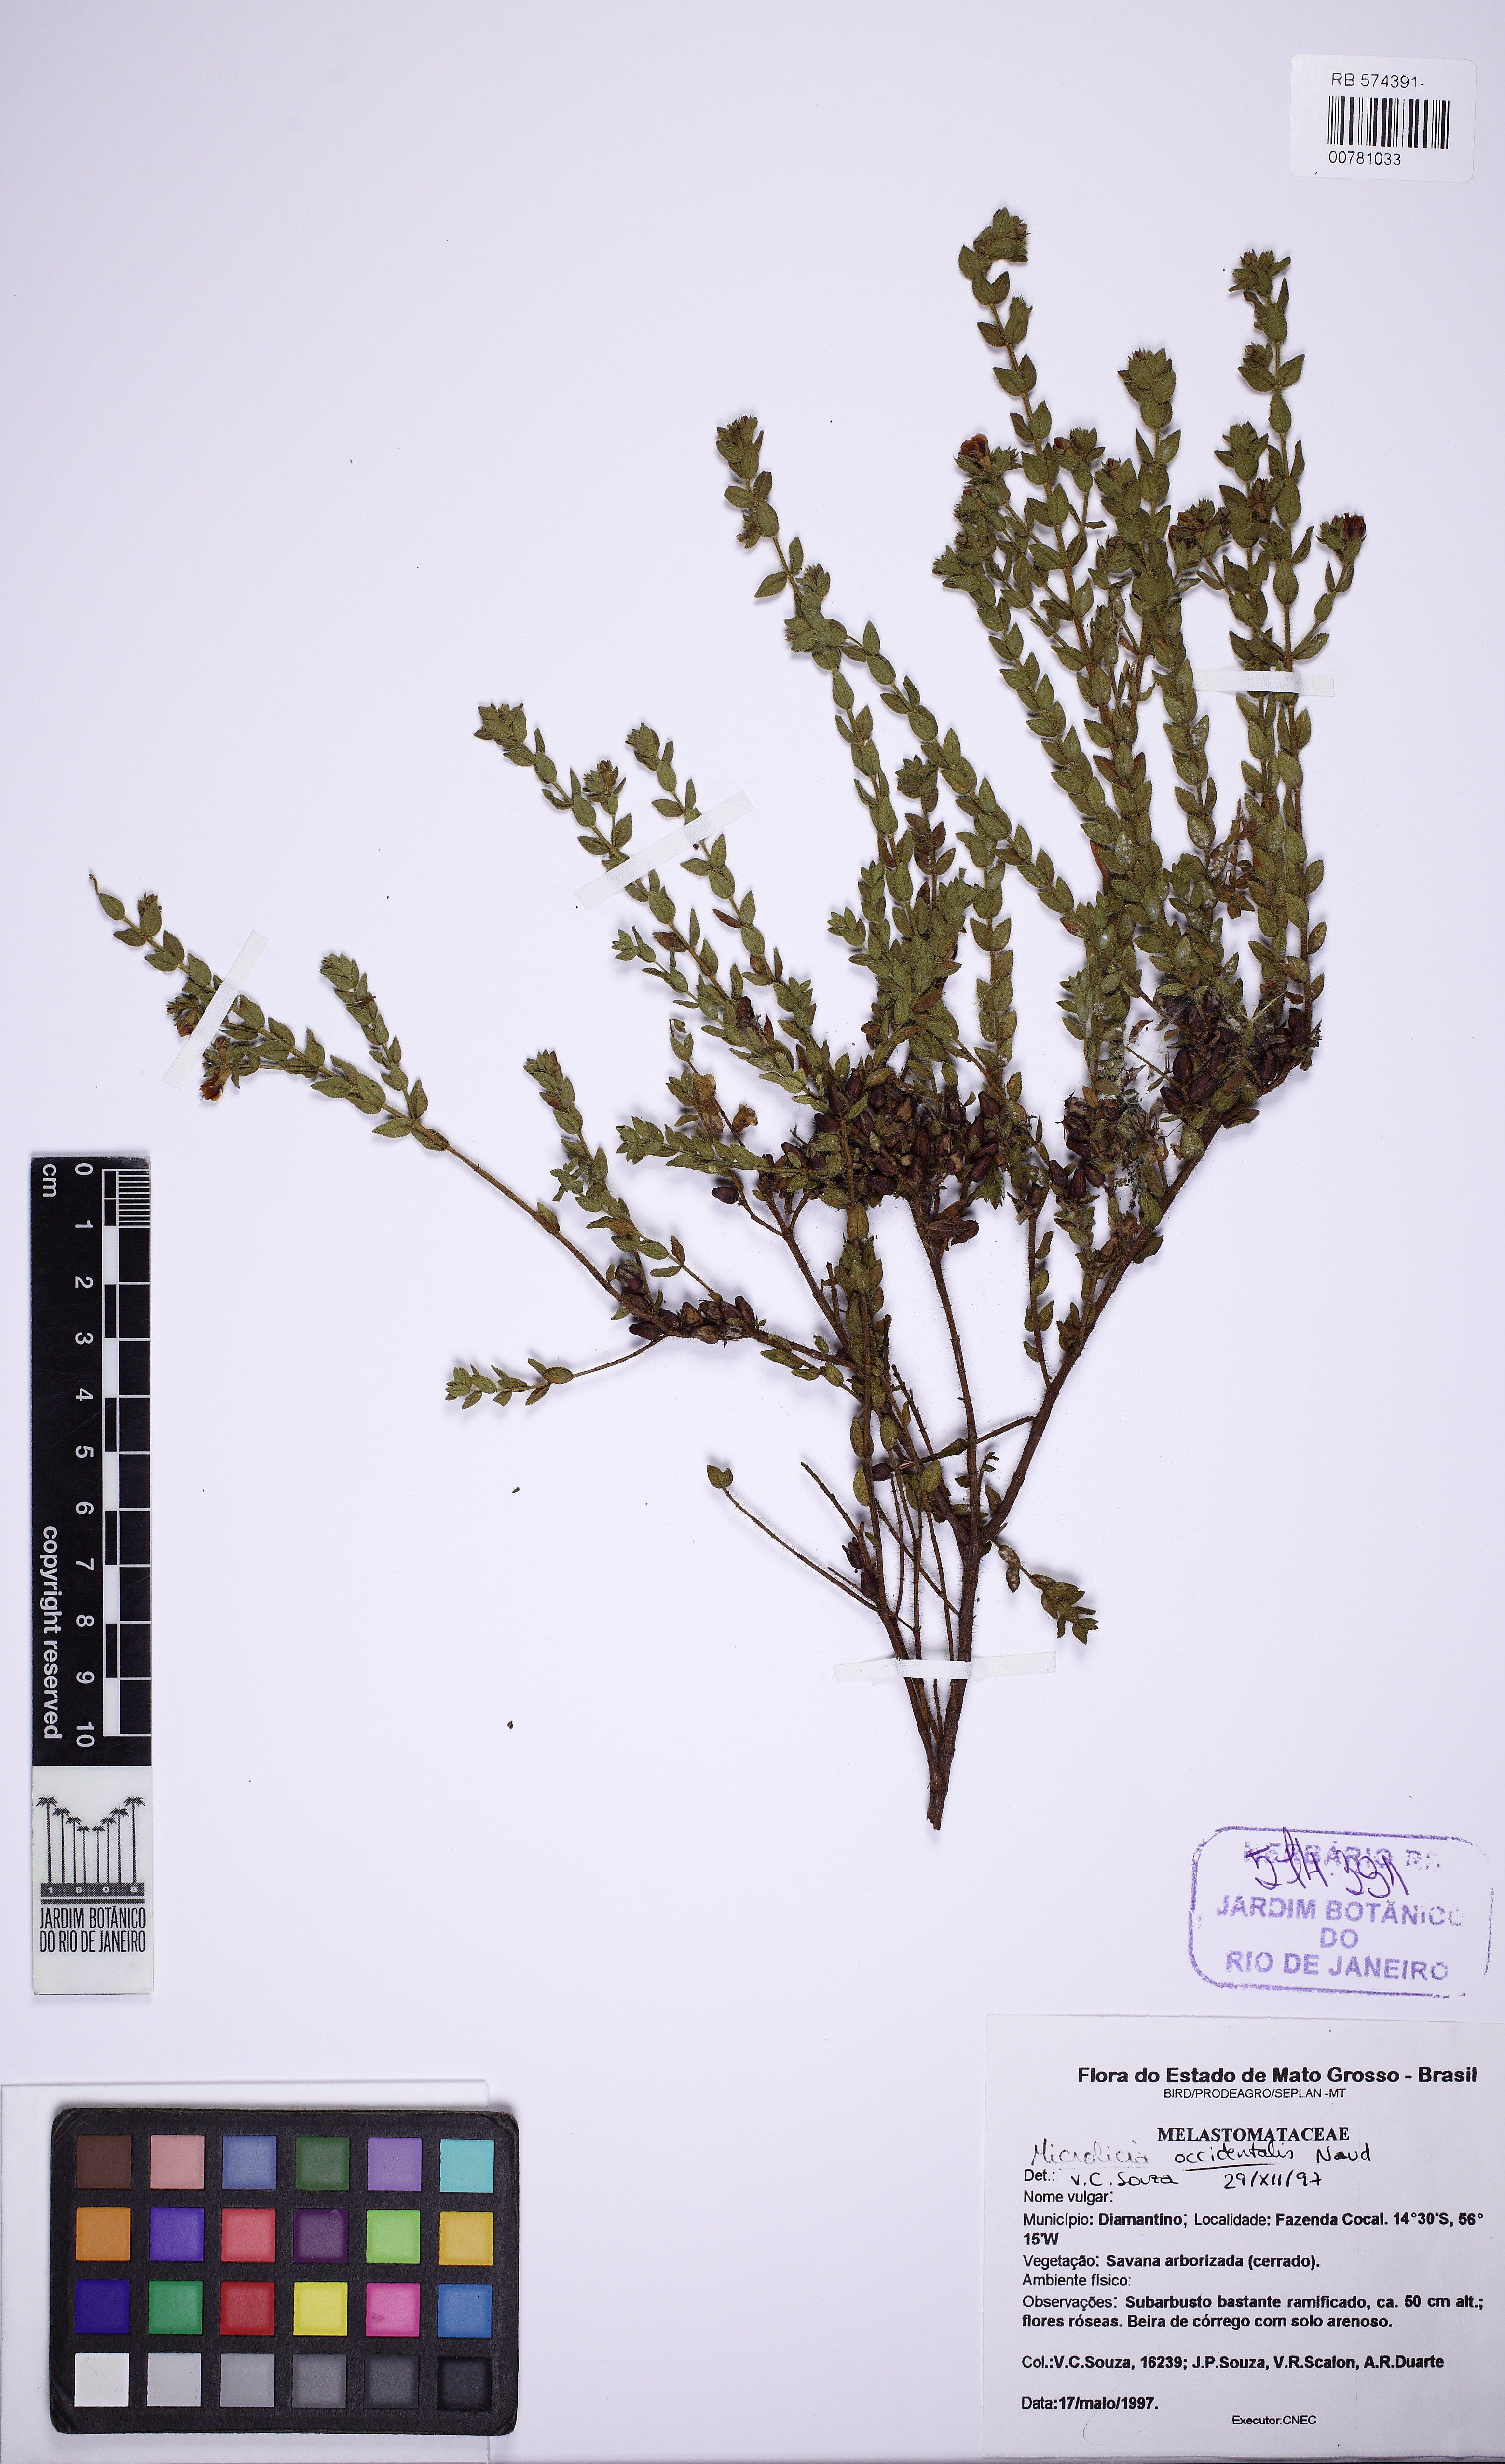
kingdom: Plantae
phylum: Tracheophyta
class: Magnoliopsida
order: Myrtales
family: Melastomataceae
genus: Microlicia
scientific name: Microlicia helvola
